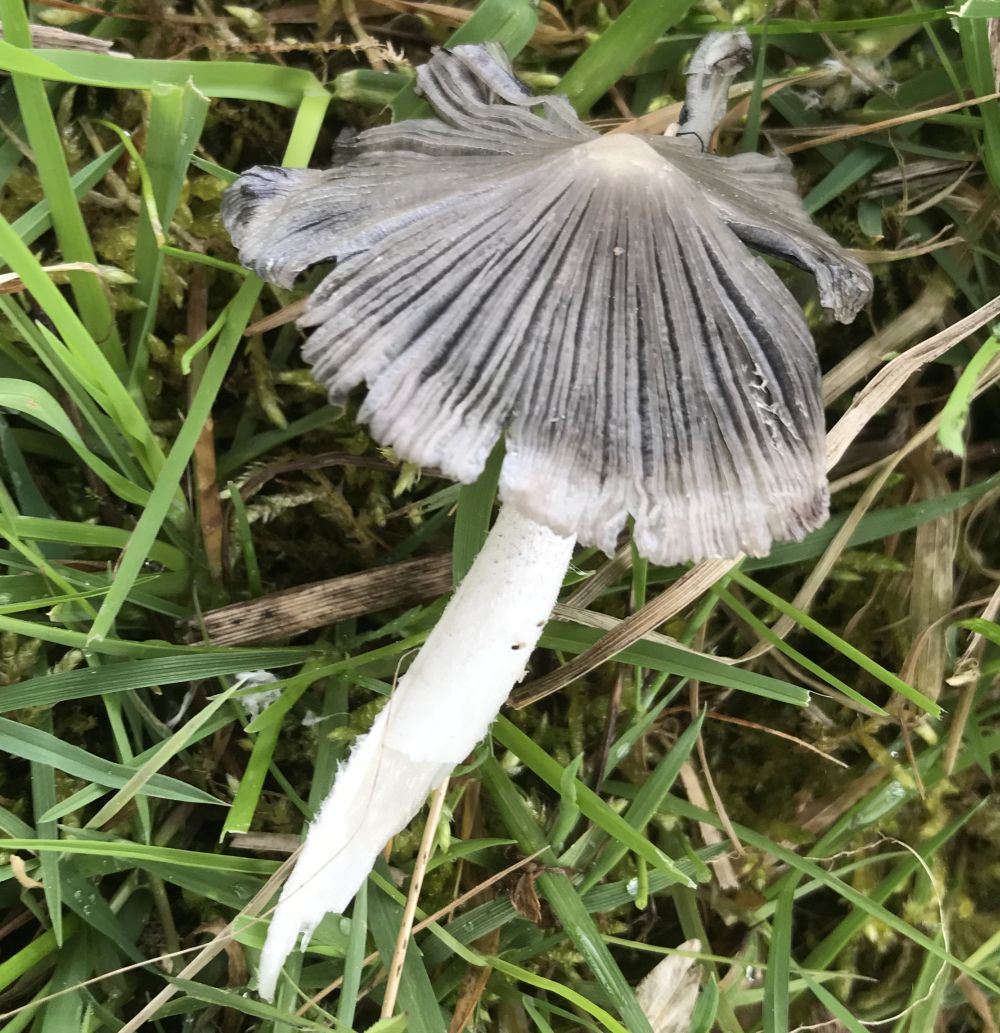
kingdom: Fungi
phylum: Basidiomycota
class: Agaricomycetes
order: Agaricales
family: Psathyrellaceae
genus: Coprinopsis
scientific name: Coprinopsis lagopus
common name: dunstokket blækhat
